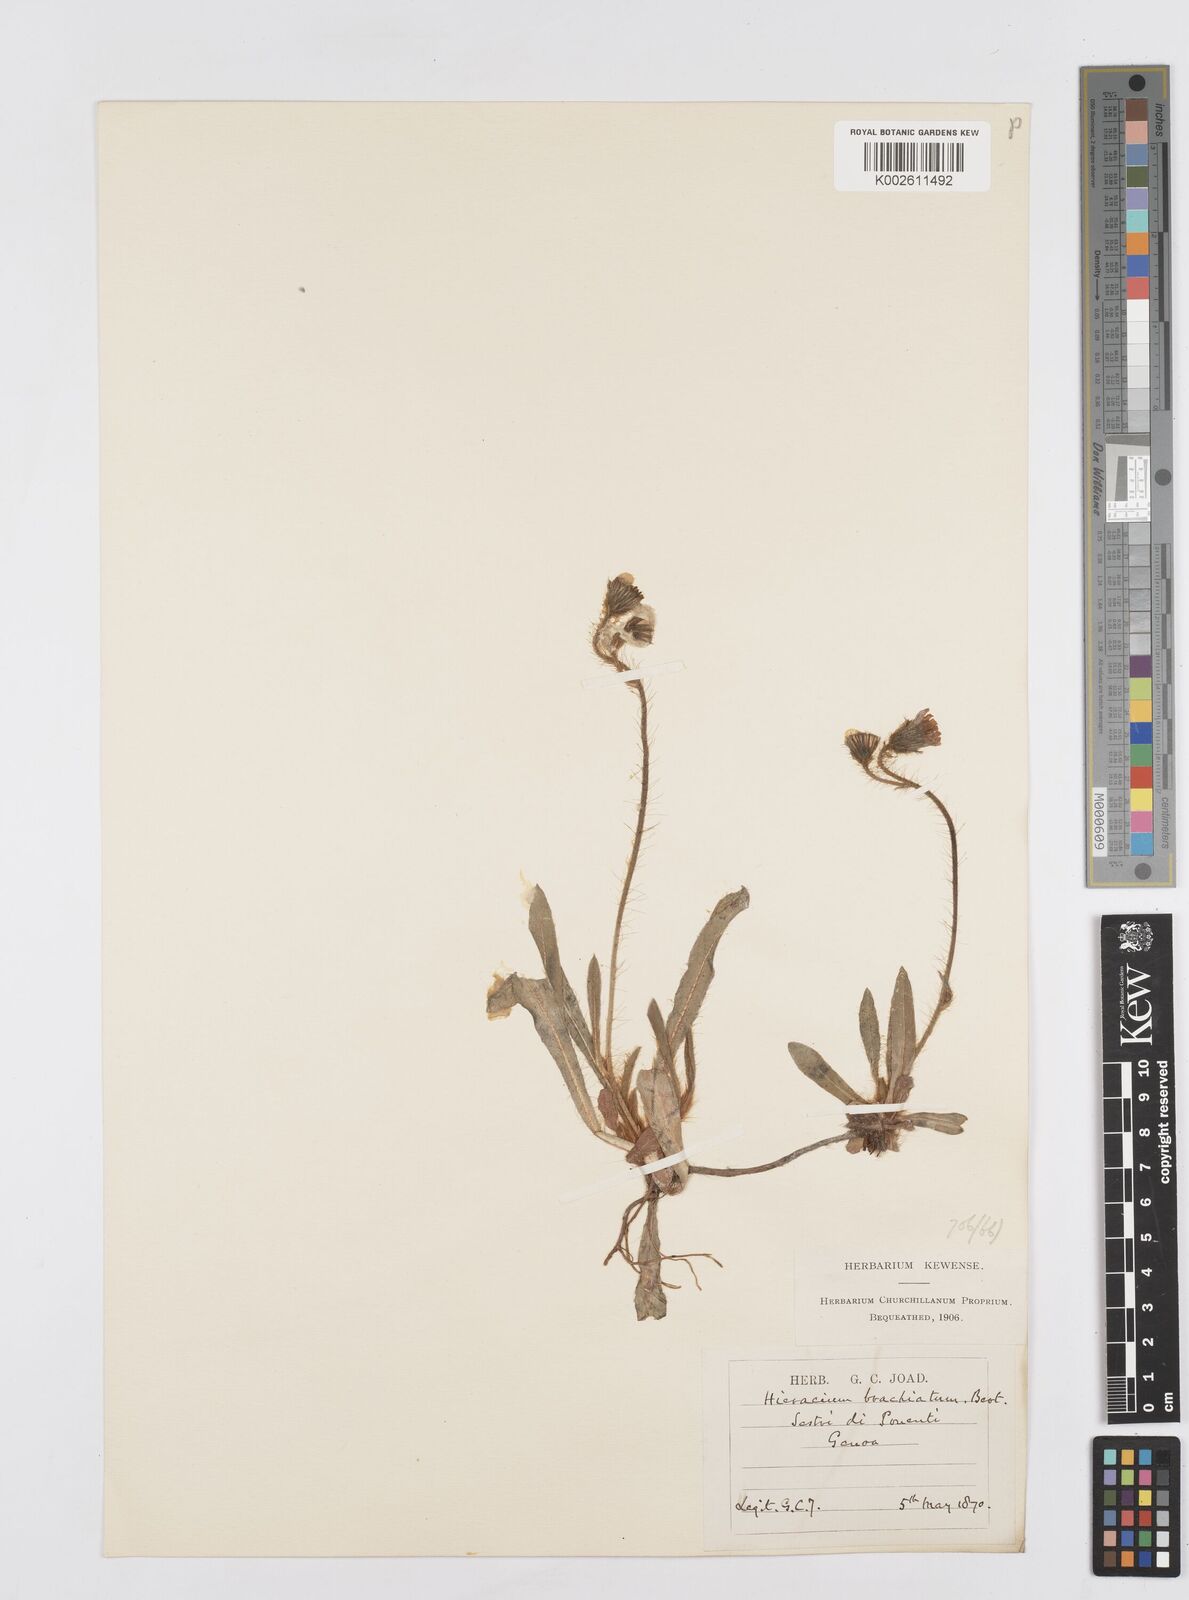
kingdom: Plantae
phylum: Tracheophyta
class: Magnoliopsida
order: Asterales
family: Asteraceae
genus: Pilosella
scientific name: Pilosella acutifolia
